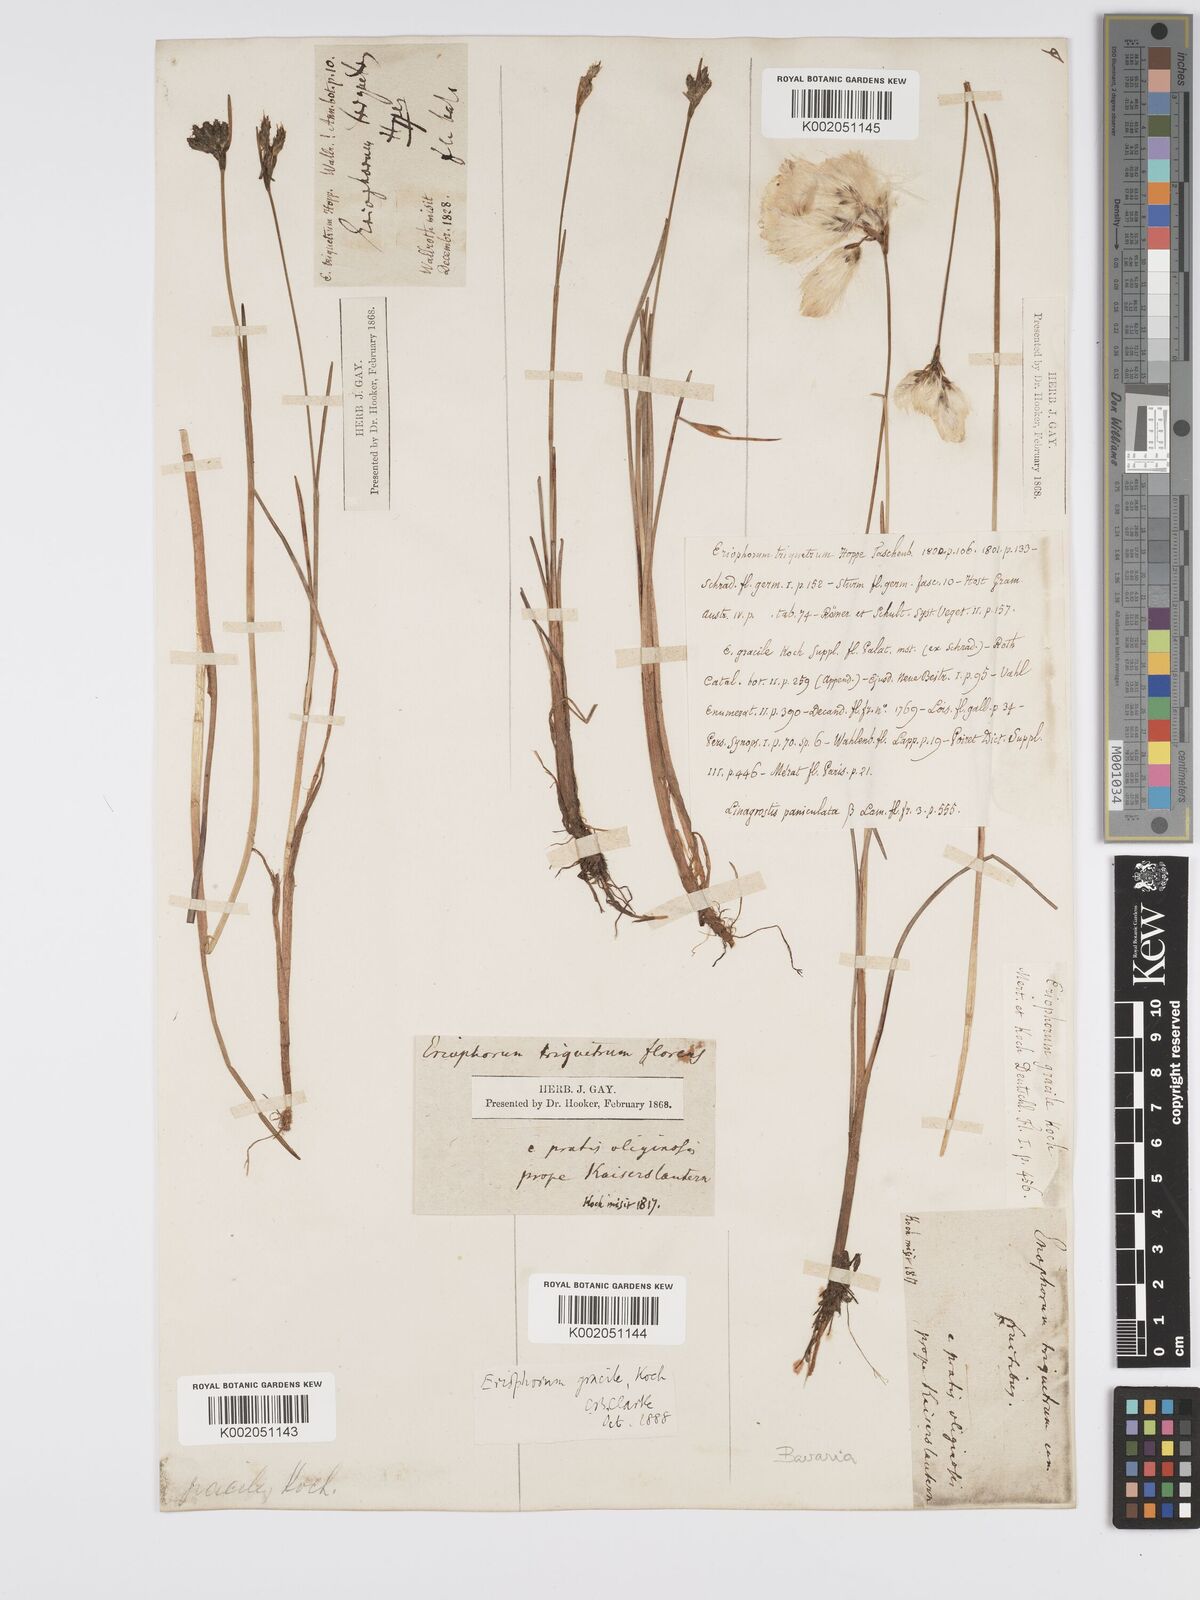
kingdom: Plantae
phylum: Tracheophyta
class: Liliopsida
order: Poales
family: Cyperaceae
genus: Eriophorum
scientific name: Eriophorum gracile
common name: Slender cottongrass
